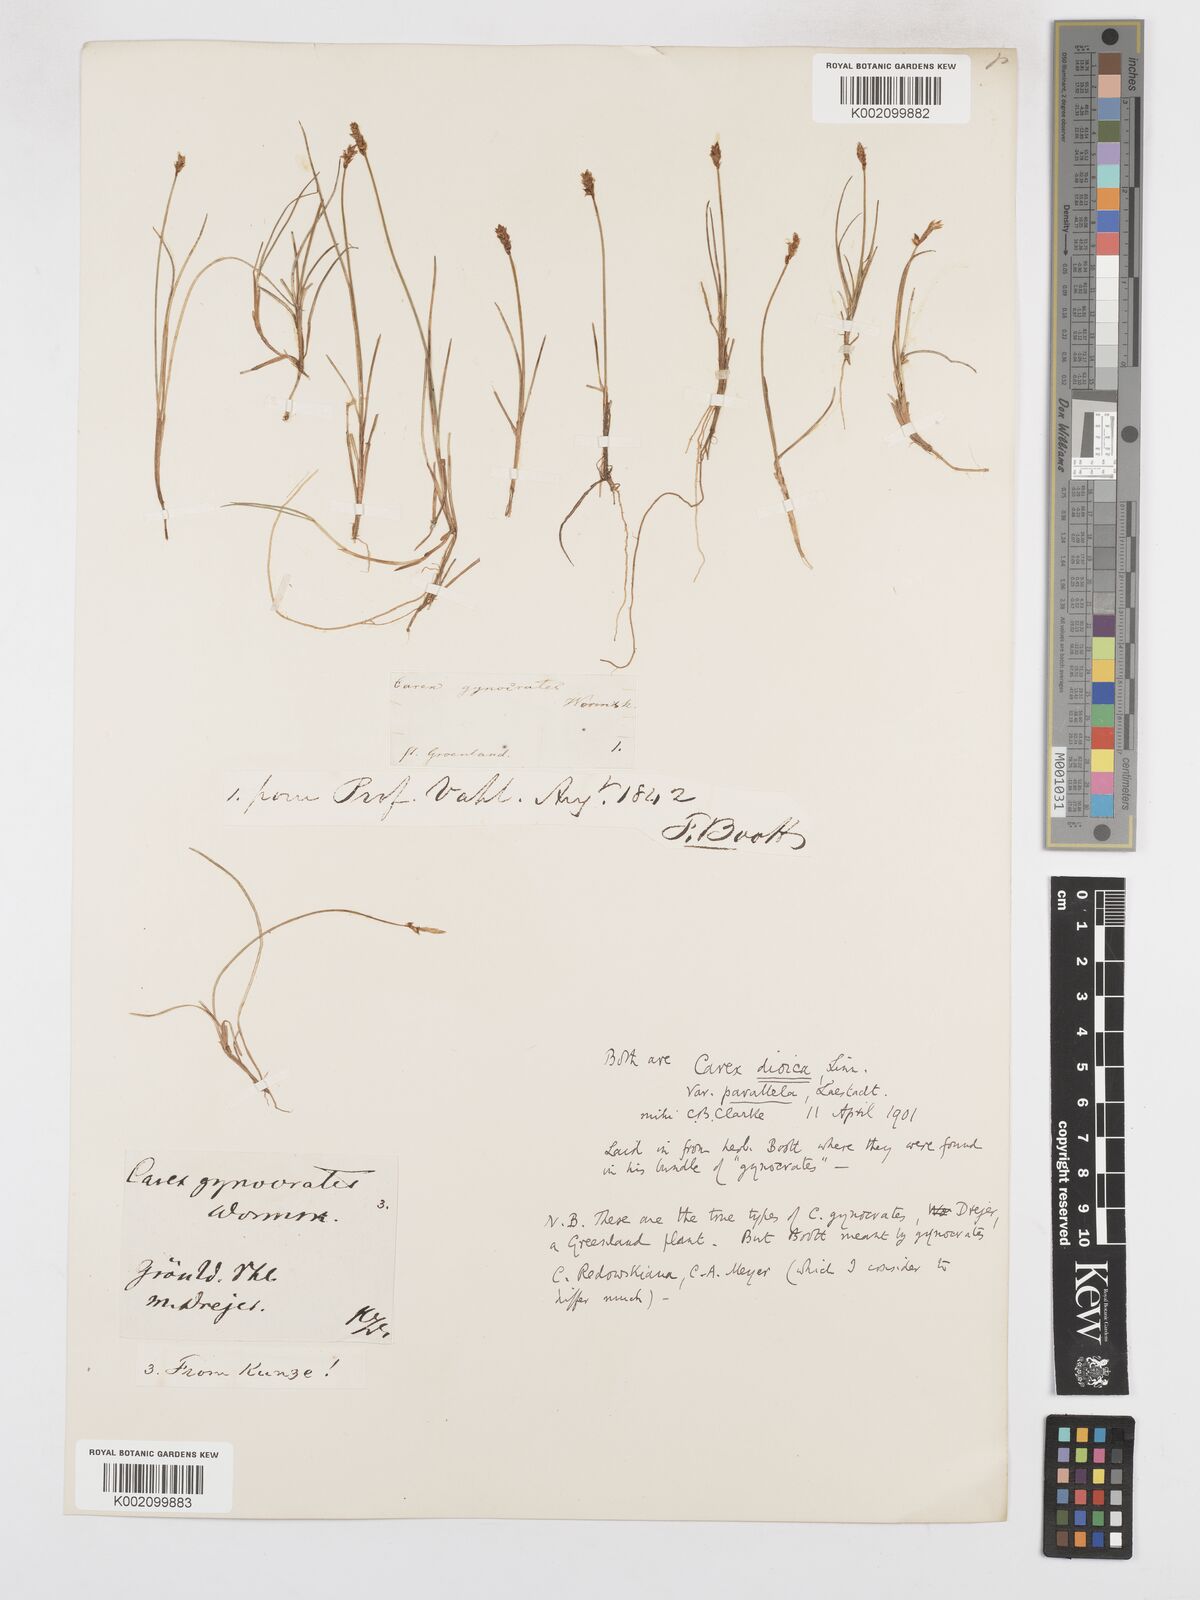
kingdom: Plantae
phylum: Tracheophyta
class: Liliopsida
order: Poales
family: Cyperaceae
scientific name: Cyperaceae
